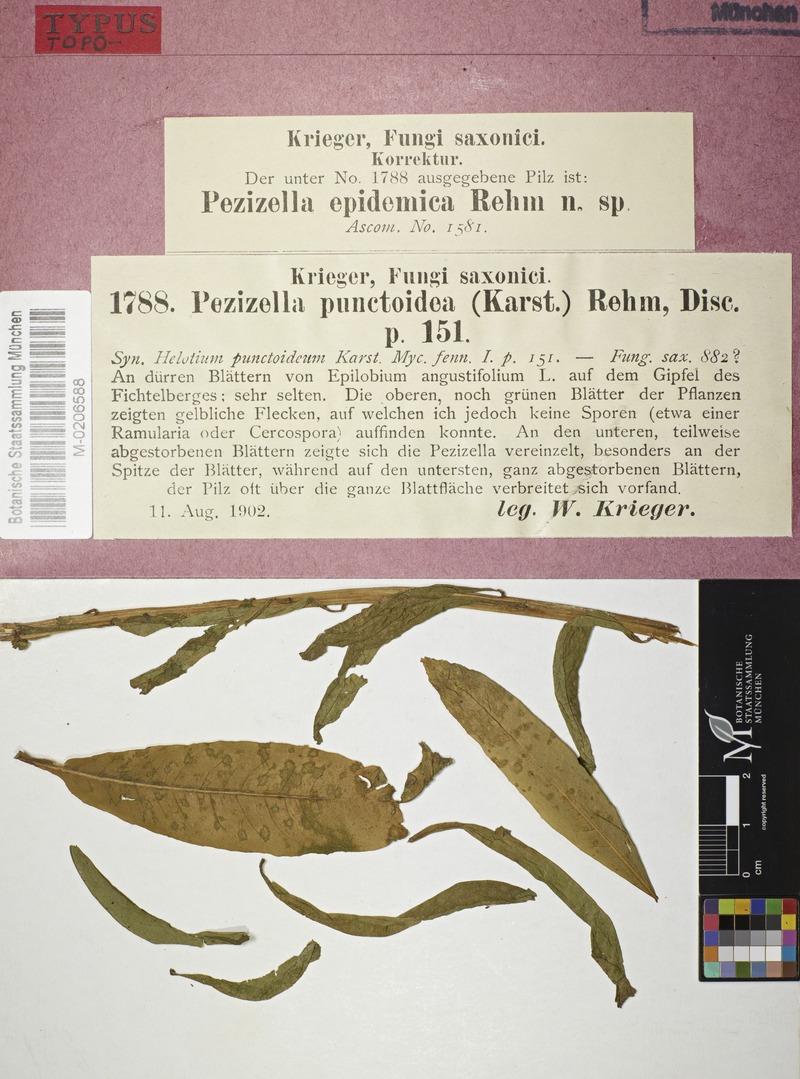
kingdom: Fungi
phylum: Ascomycota
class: Leotiomycetes
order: Helotiales
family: Pezizellaceae
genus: Pezizella
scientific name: Pezizella epidemica
